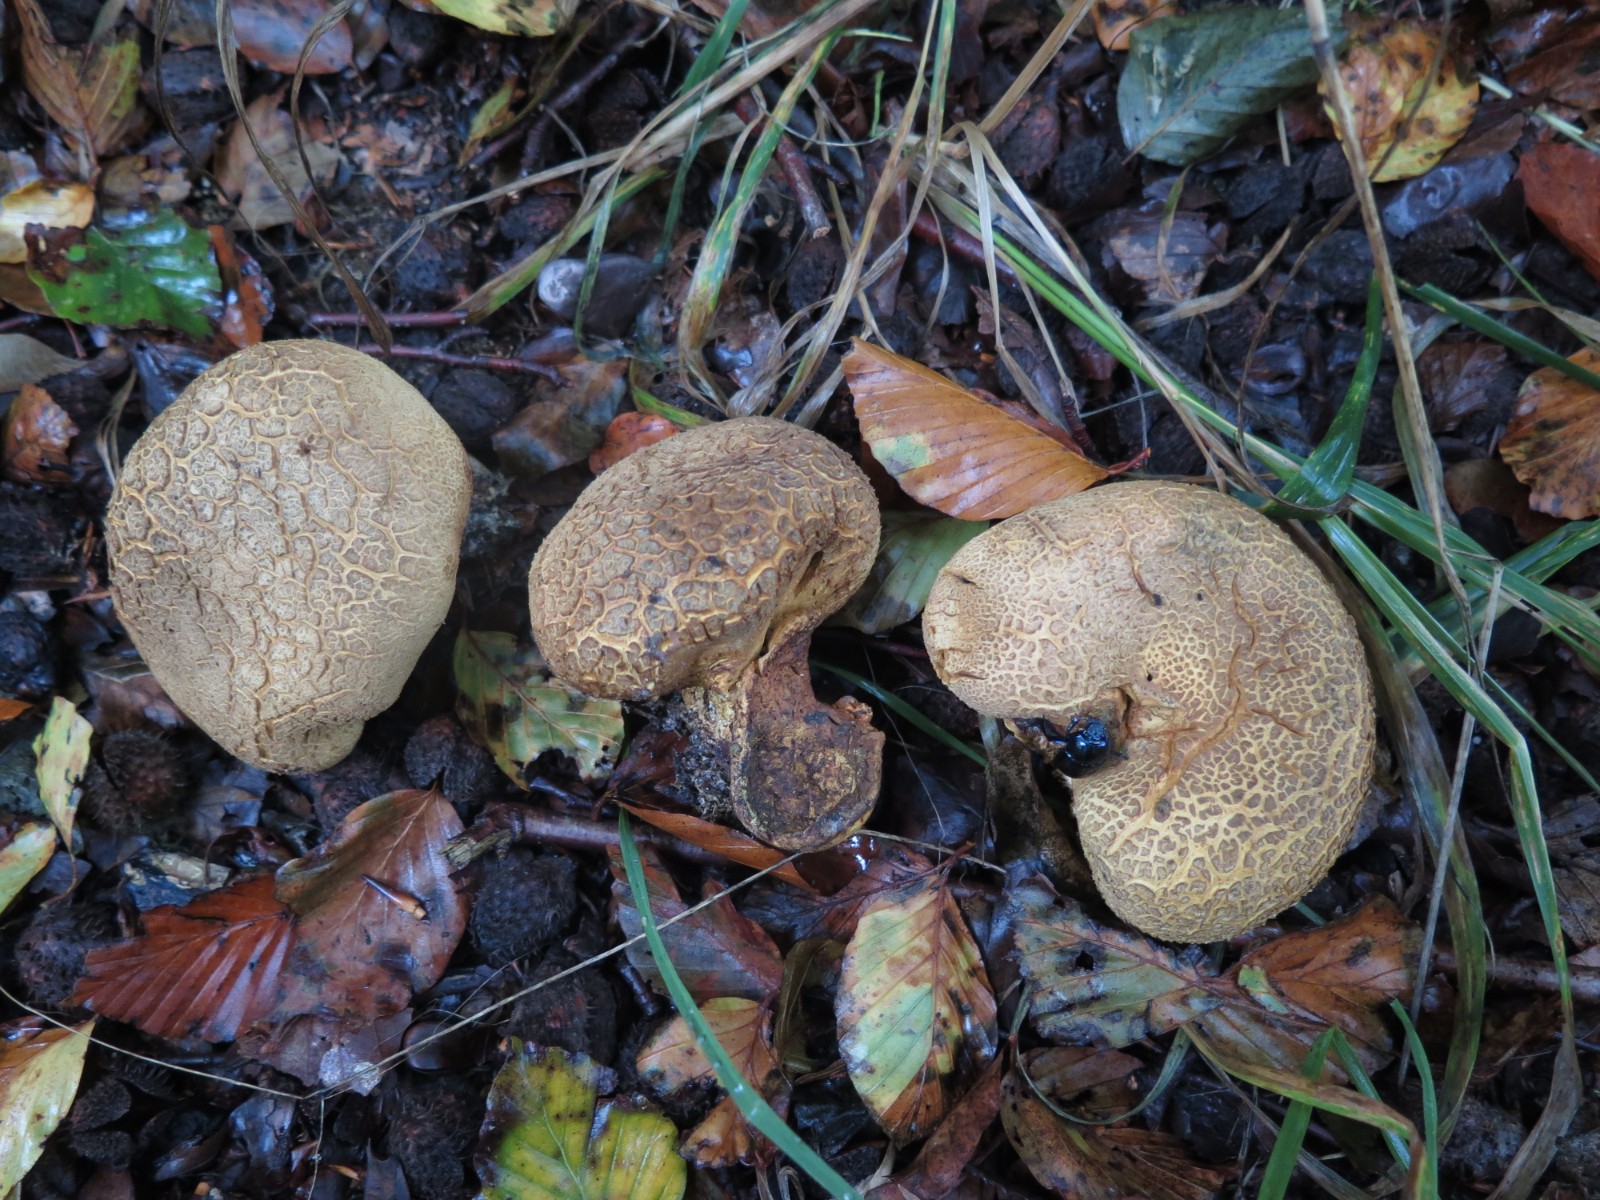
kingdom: Fungi
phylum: Basidiomycota
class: Agaricomycetes
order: Boletales
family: Sclerodermataceae
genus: Scleroderma
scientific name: Scleroderma verrucosum
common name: stilket bruskbold
